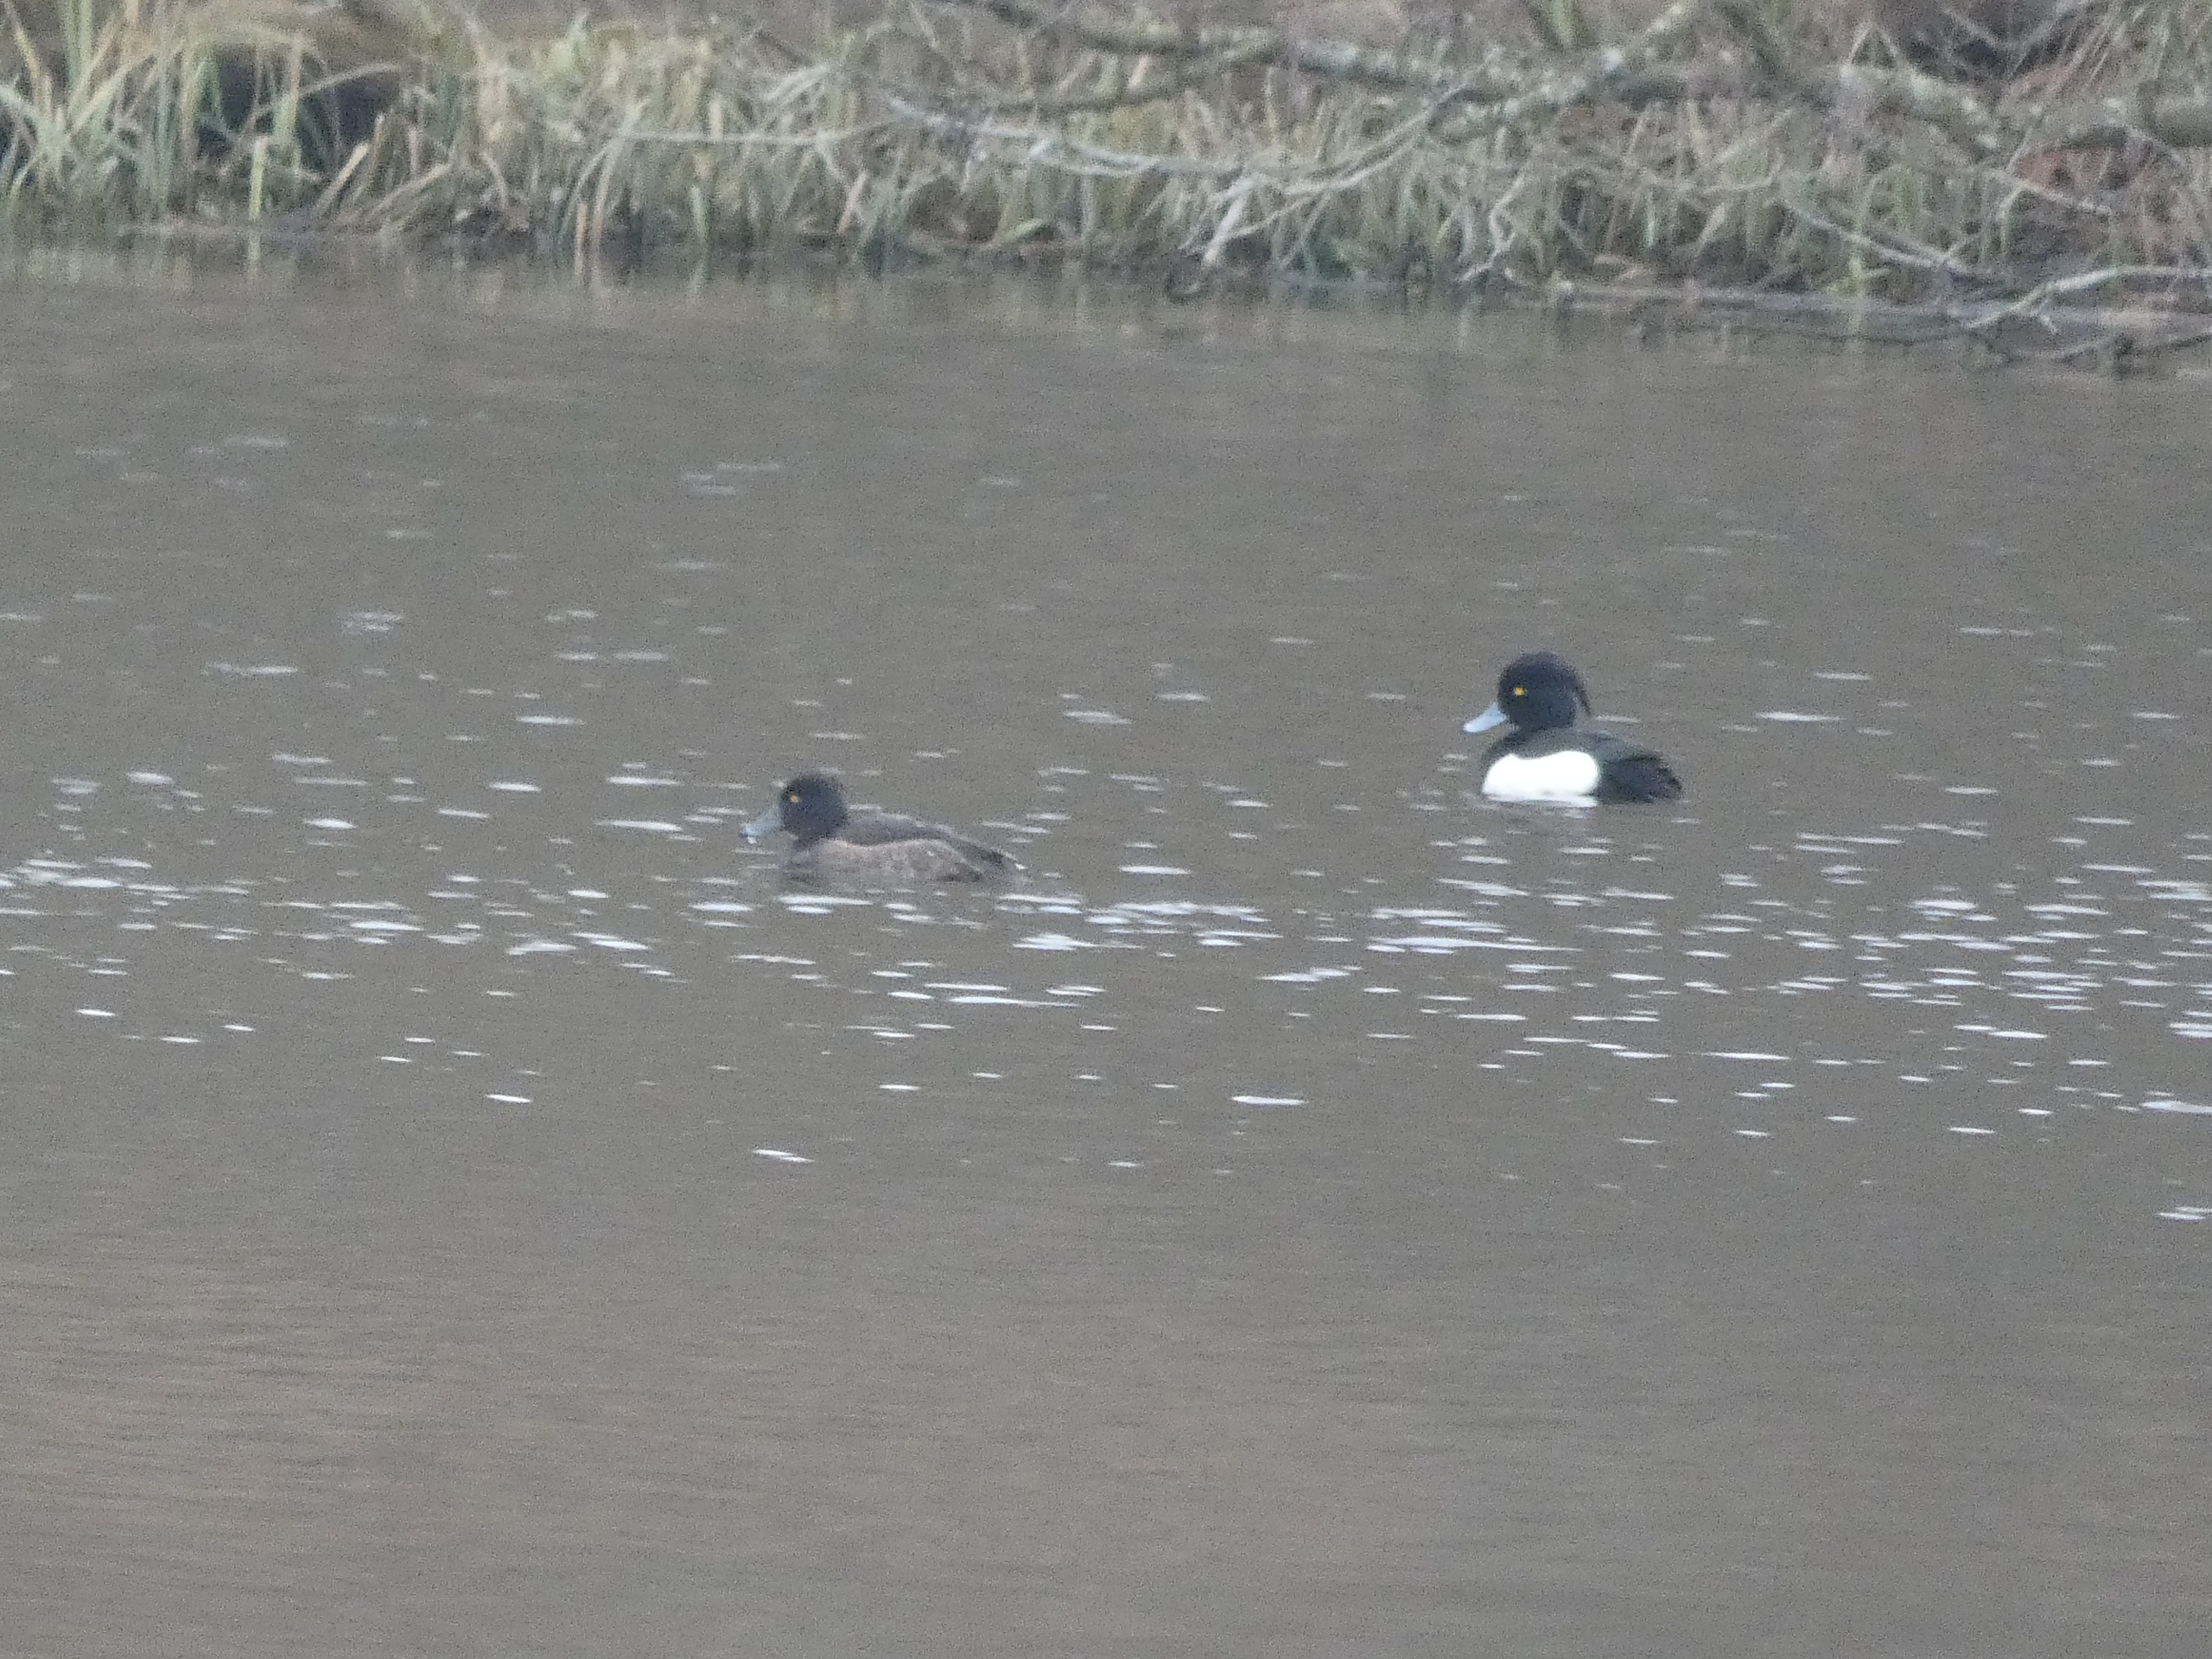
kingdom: Animalia
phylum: Chordata
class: Aves
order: Anseriformes
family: Anatidae
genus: Aythya
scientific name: Aythya fuligula
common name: Troldand
